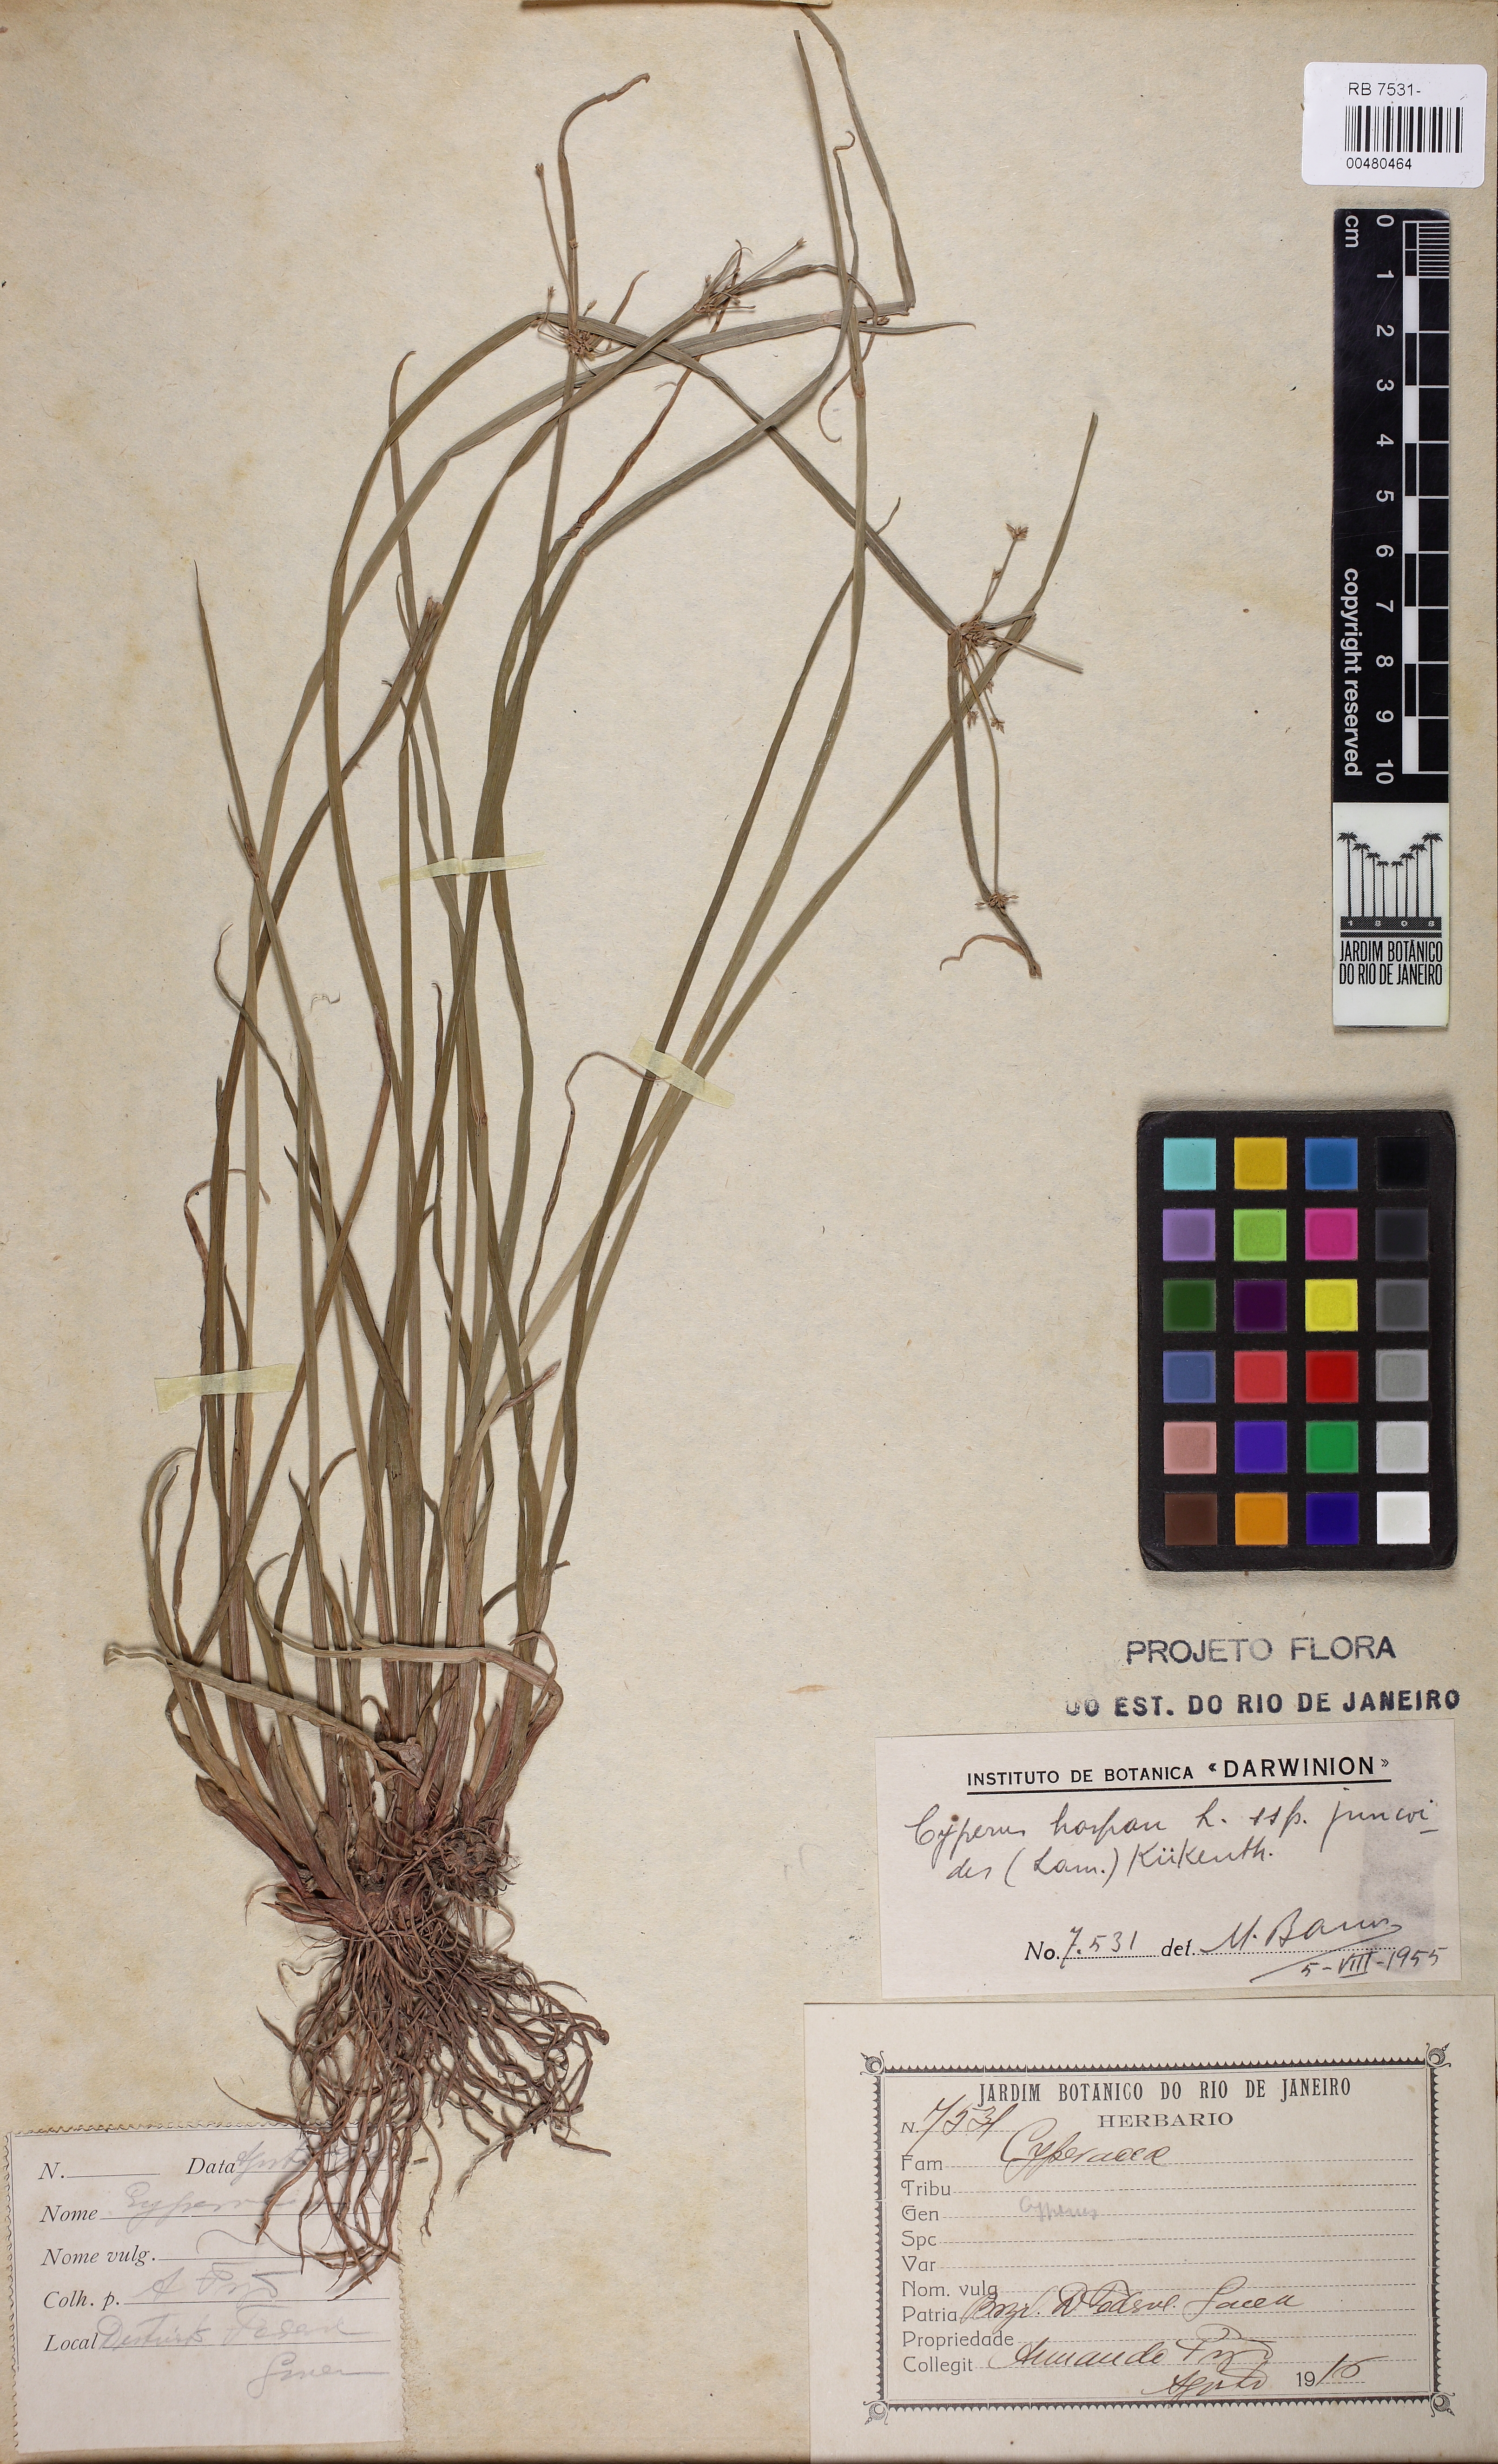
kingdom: Plantae
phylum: Tracheophyta
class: Liliopsida
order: Poales
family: Cyperaceae
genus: Cyperus
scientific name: Cyperus haspan
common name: Haspan flatsedge
